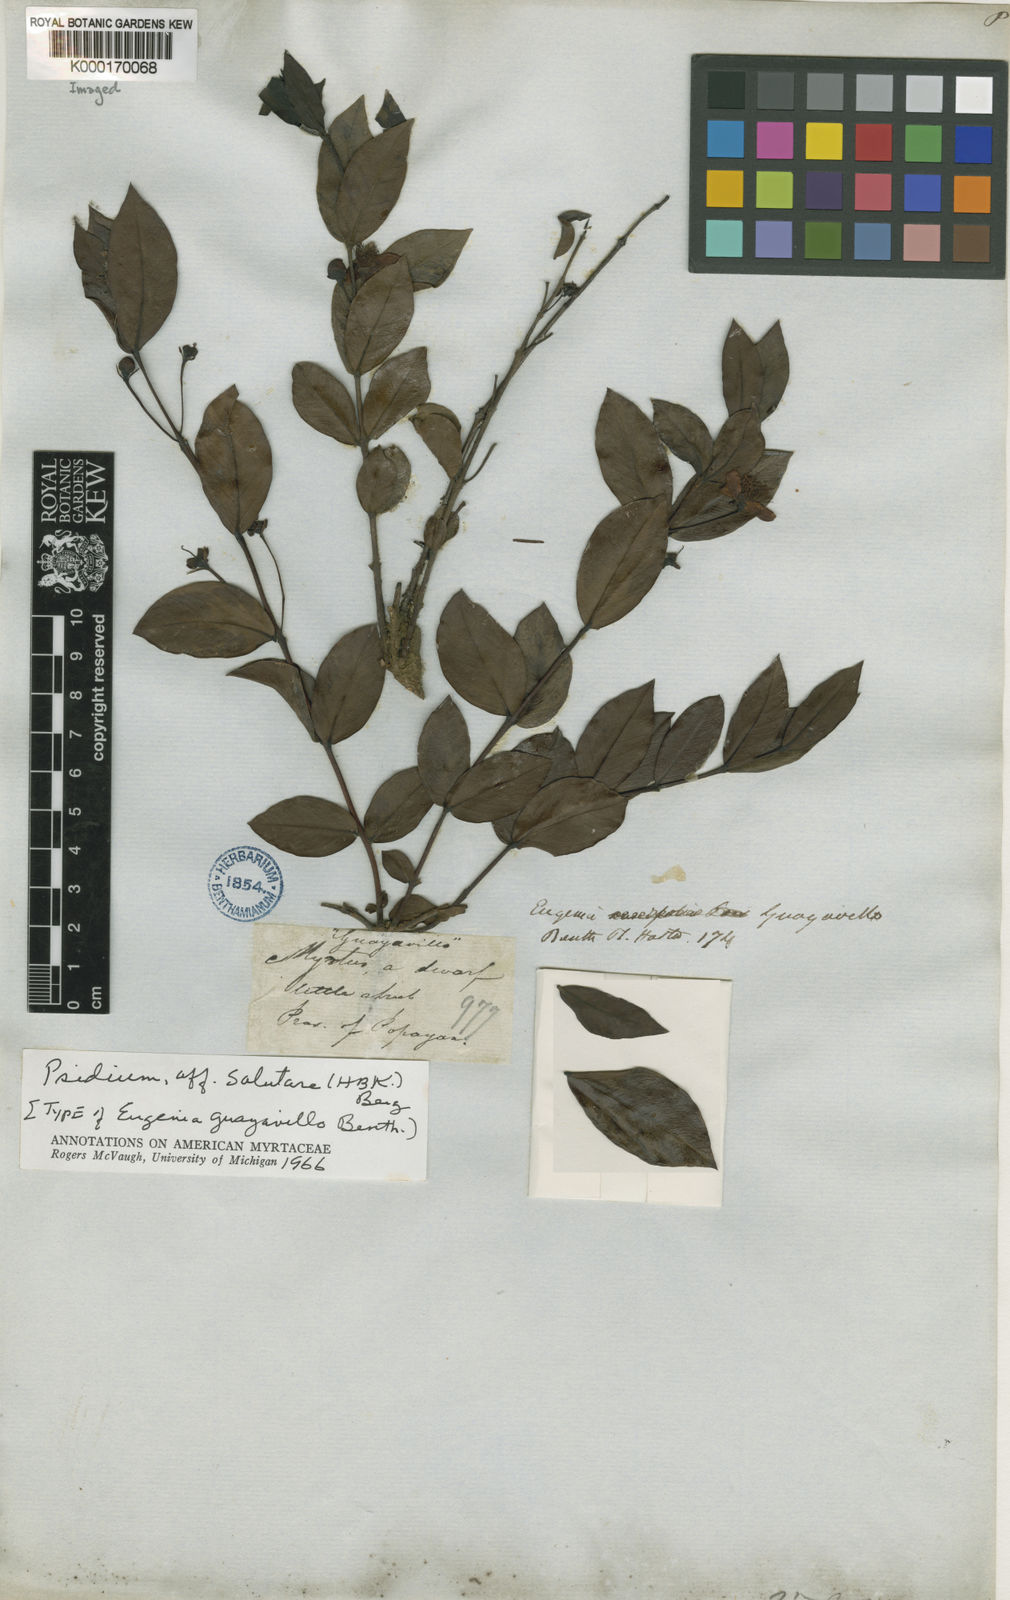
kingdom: Plantae
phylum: Tracheophyta
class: Magnoliopsida
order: Myrtales
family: Myrtaceae
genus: Psidium
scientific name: Psidium salutare
